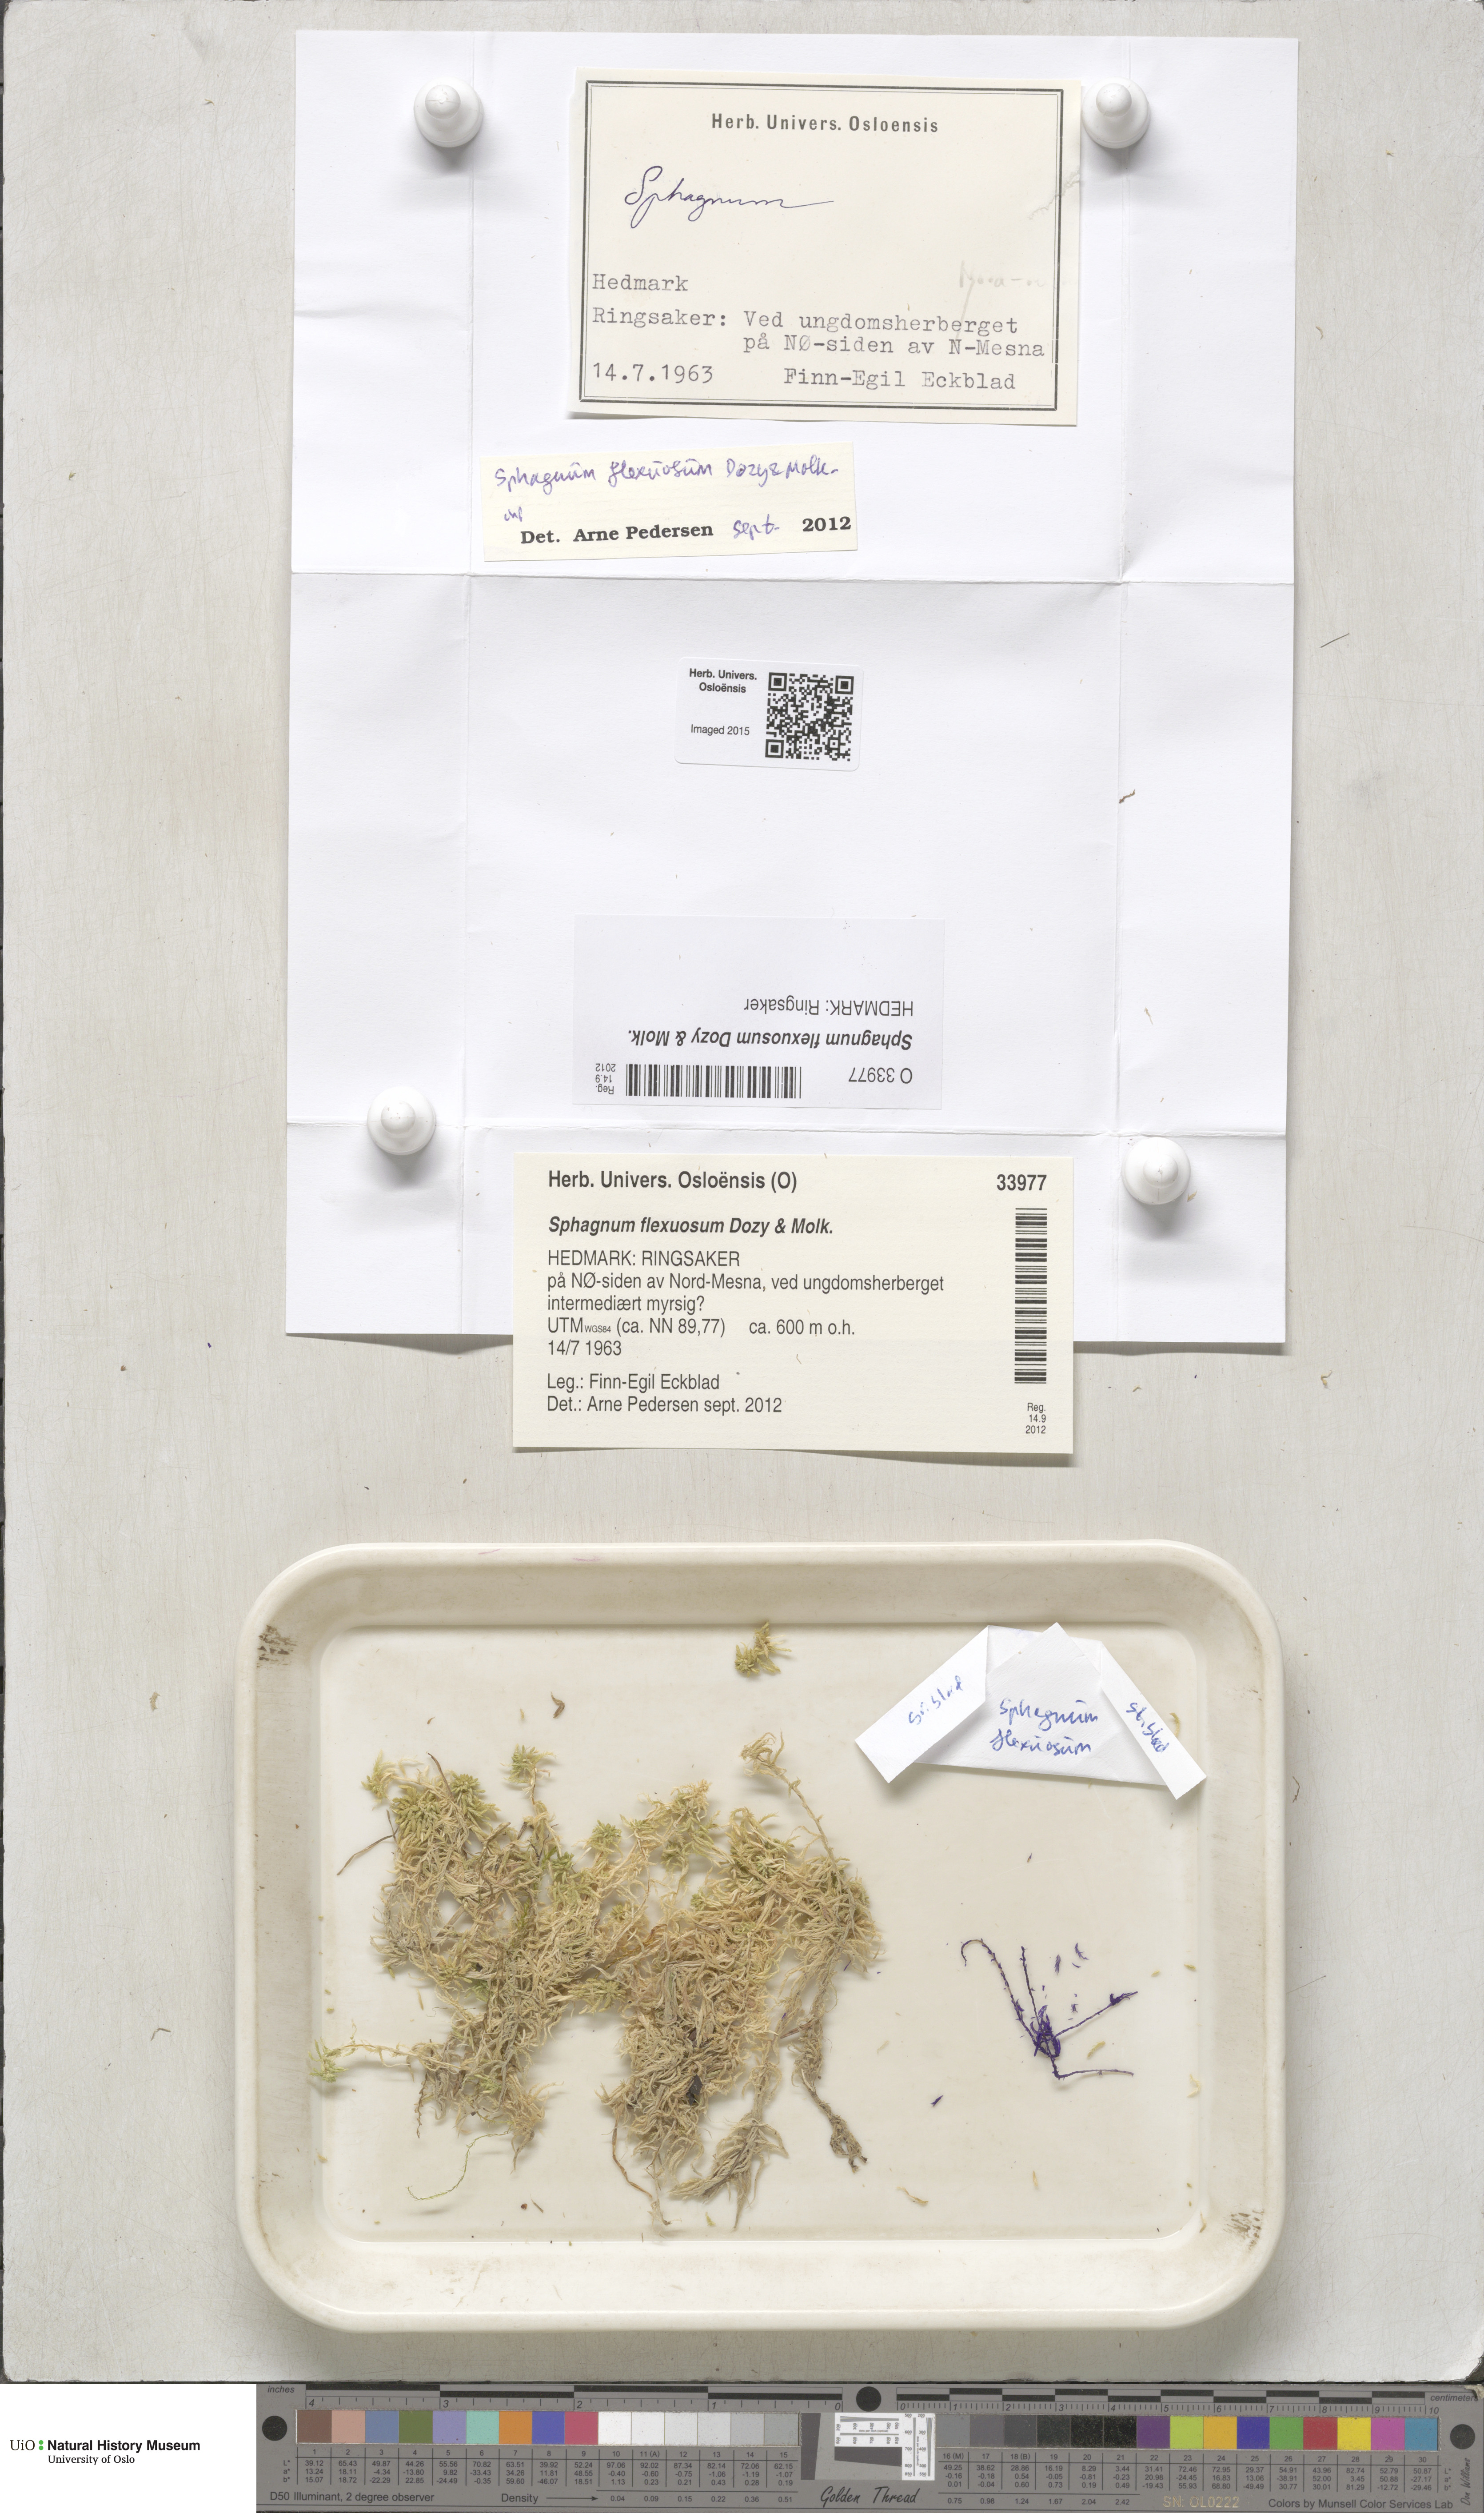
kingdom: Plantae
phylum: Bryophyta
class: Sphagnopsida
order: Sphagnales
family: Sphagnaceae
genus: Sphagnum
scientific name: Sphagnum flexuosum
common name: Flexible peat moss
